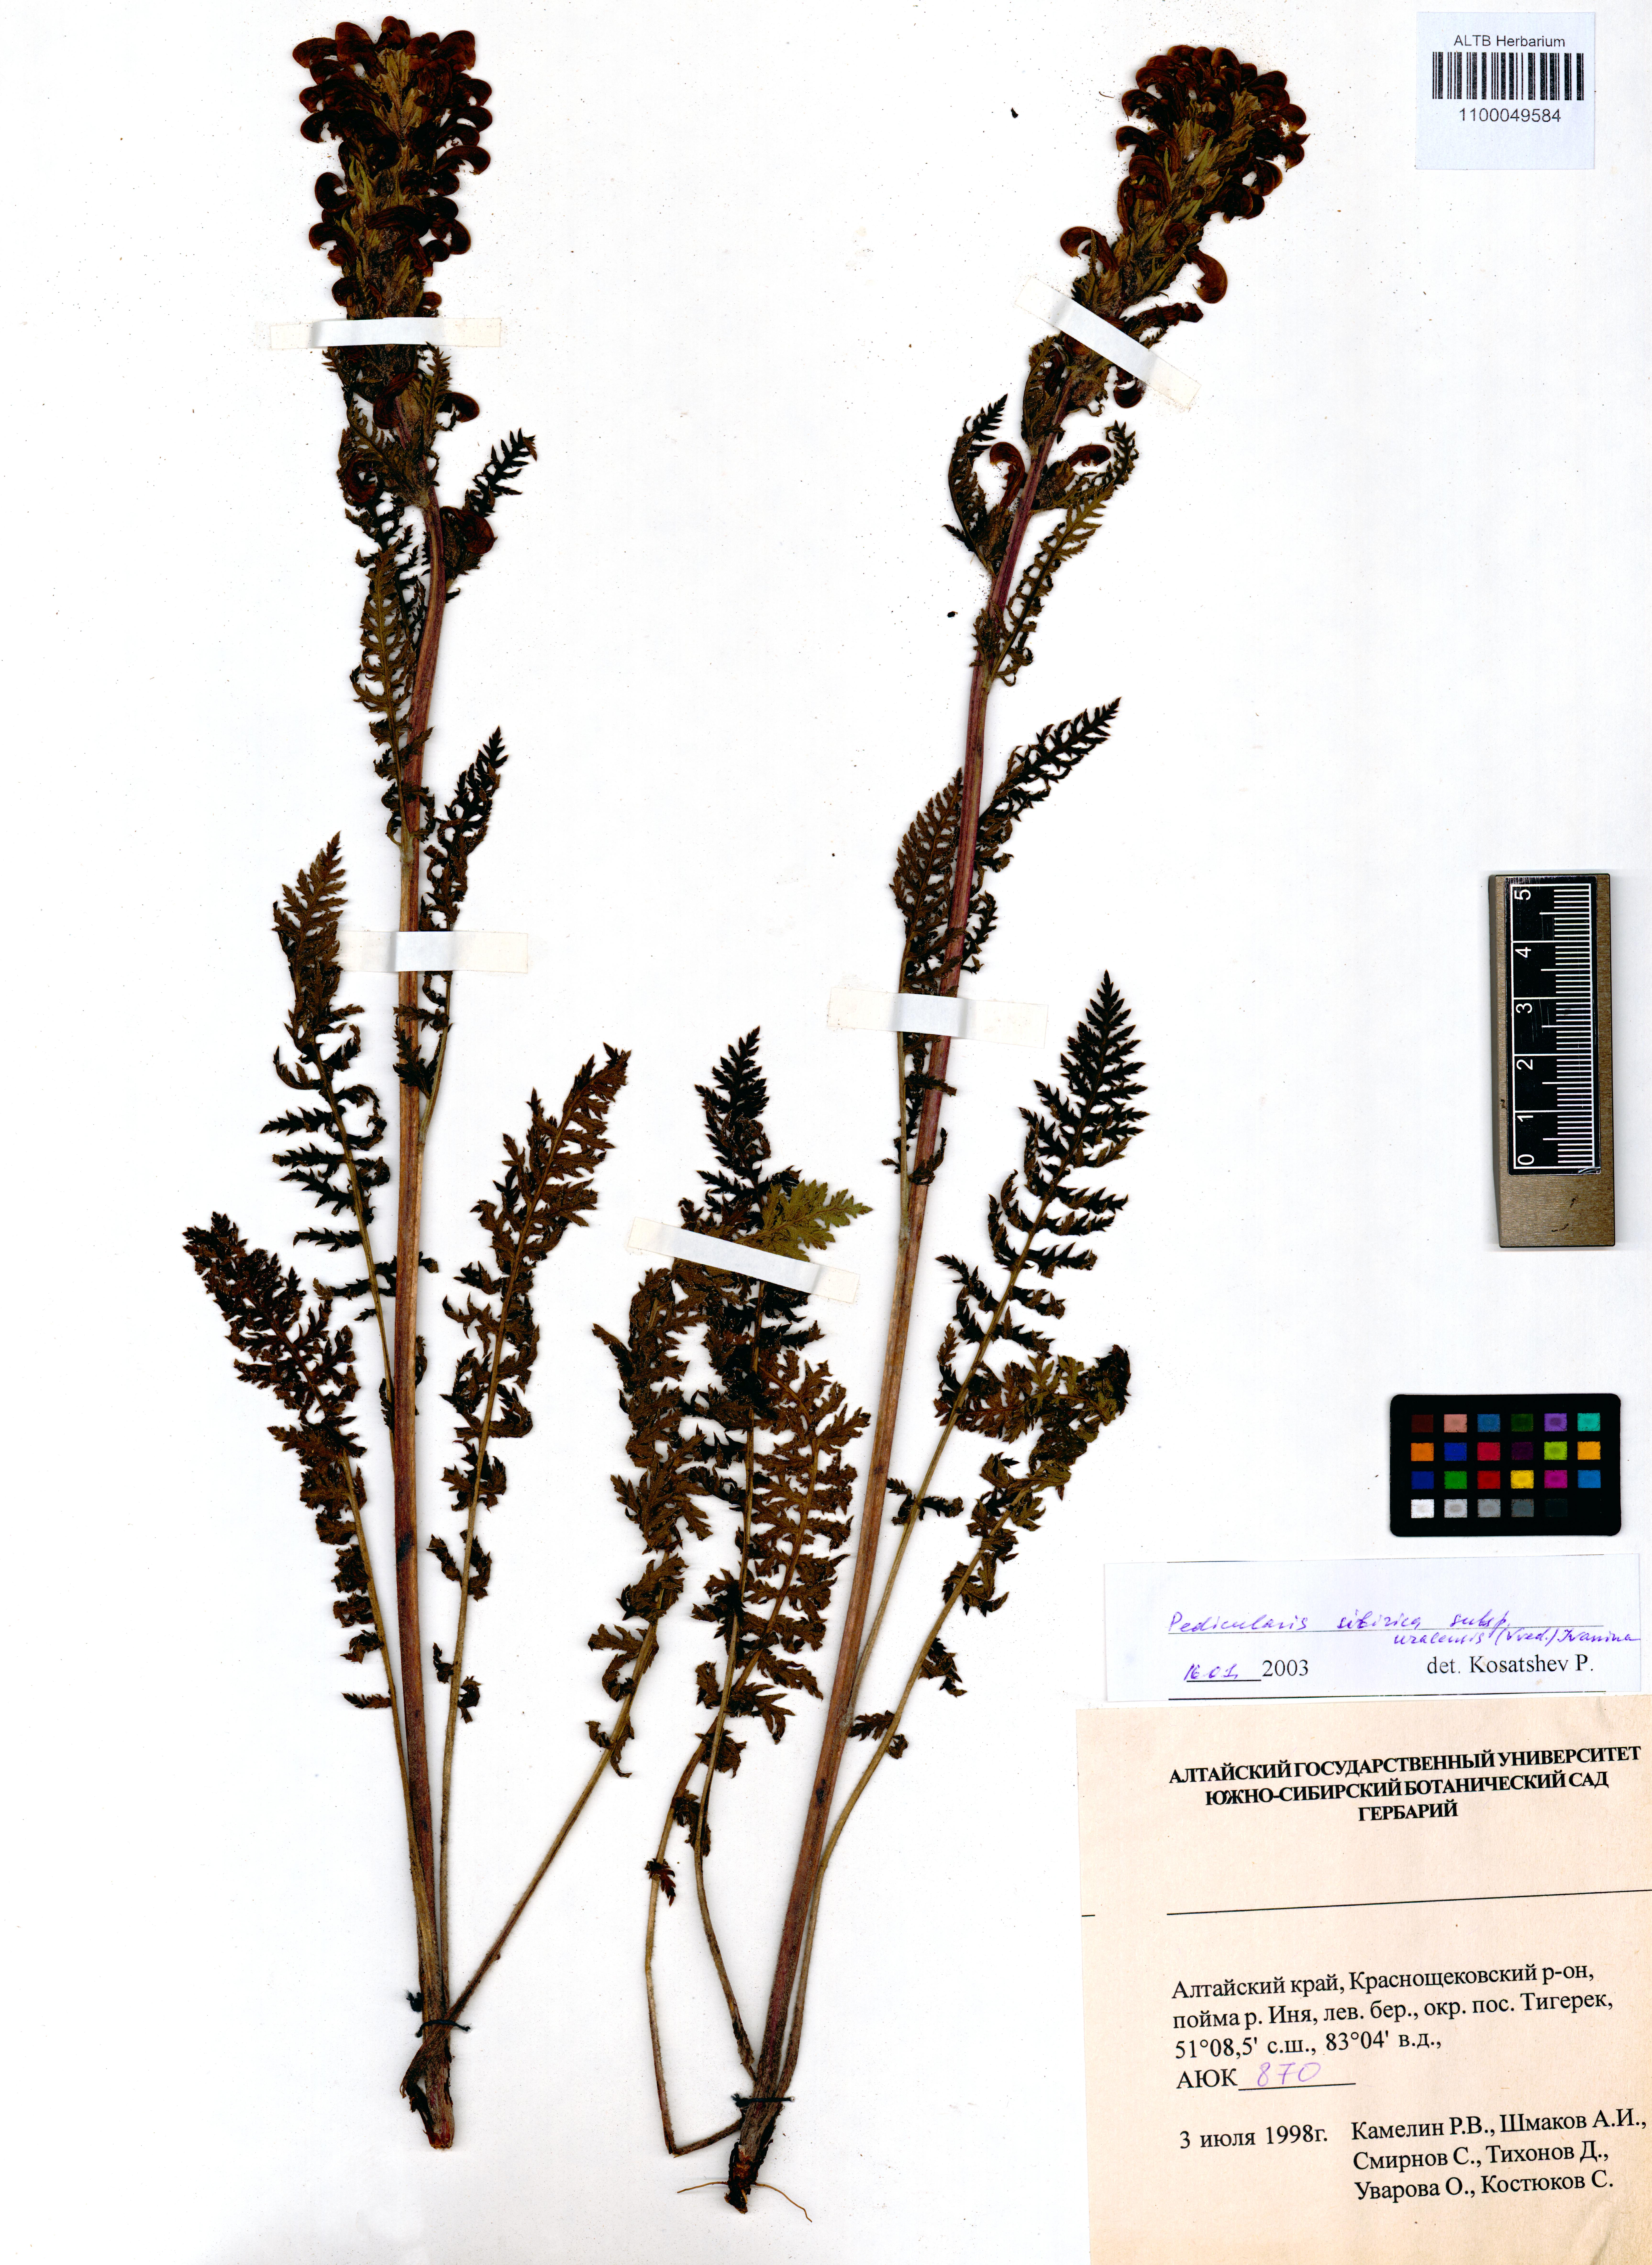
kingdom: Plantae
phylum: Tracheophyta
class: Magnoliopsida
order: Lamiales
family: Orobanchaceae
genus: Pedicularis
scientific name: Pedicularis uralensis
